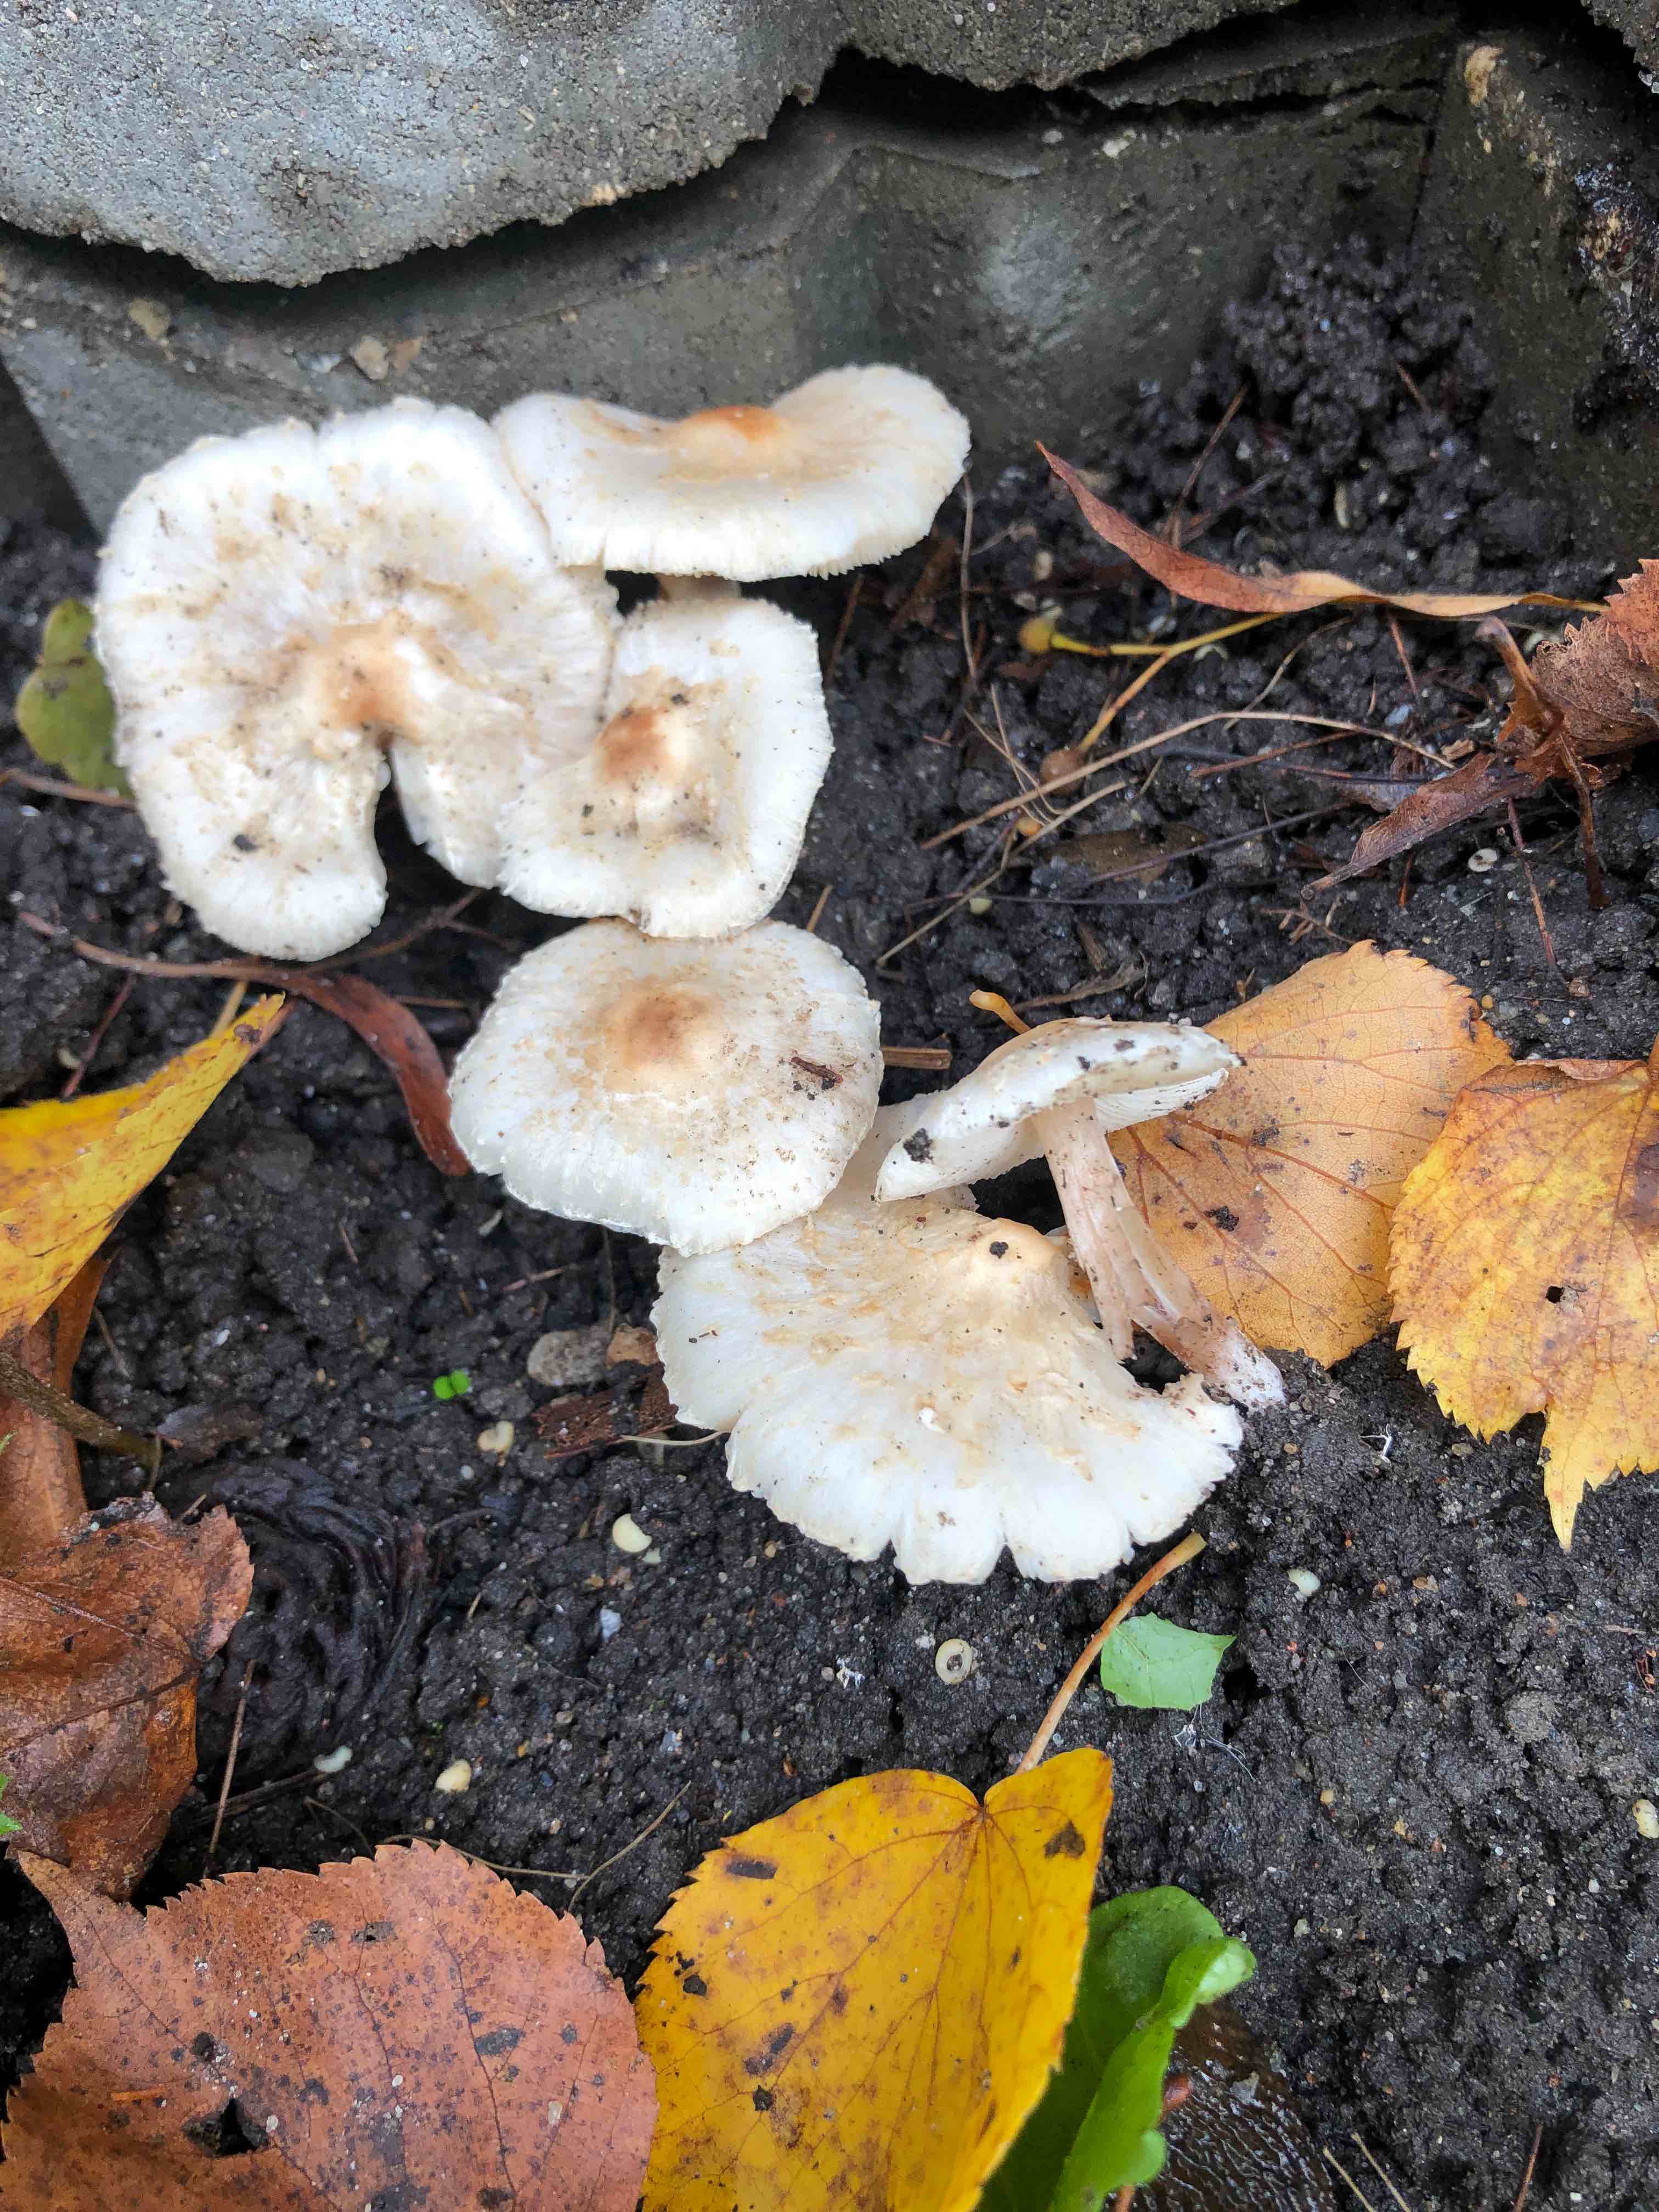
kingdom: Fungi
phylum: Basidiomycota
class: Agaricomycetes
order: Agaricales
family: Agaricaceae
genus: Lepiota
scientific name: Lepiota cristata
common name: stinkende parasolhat
